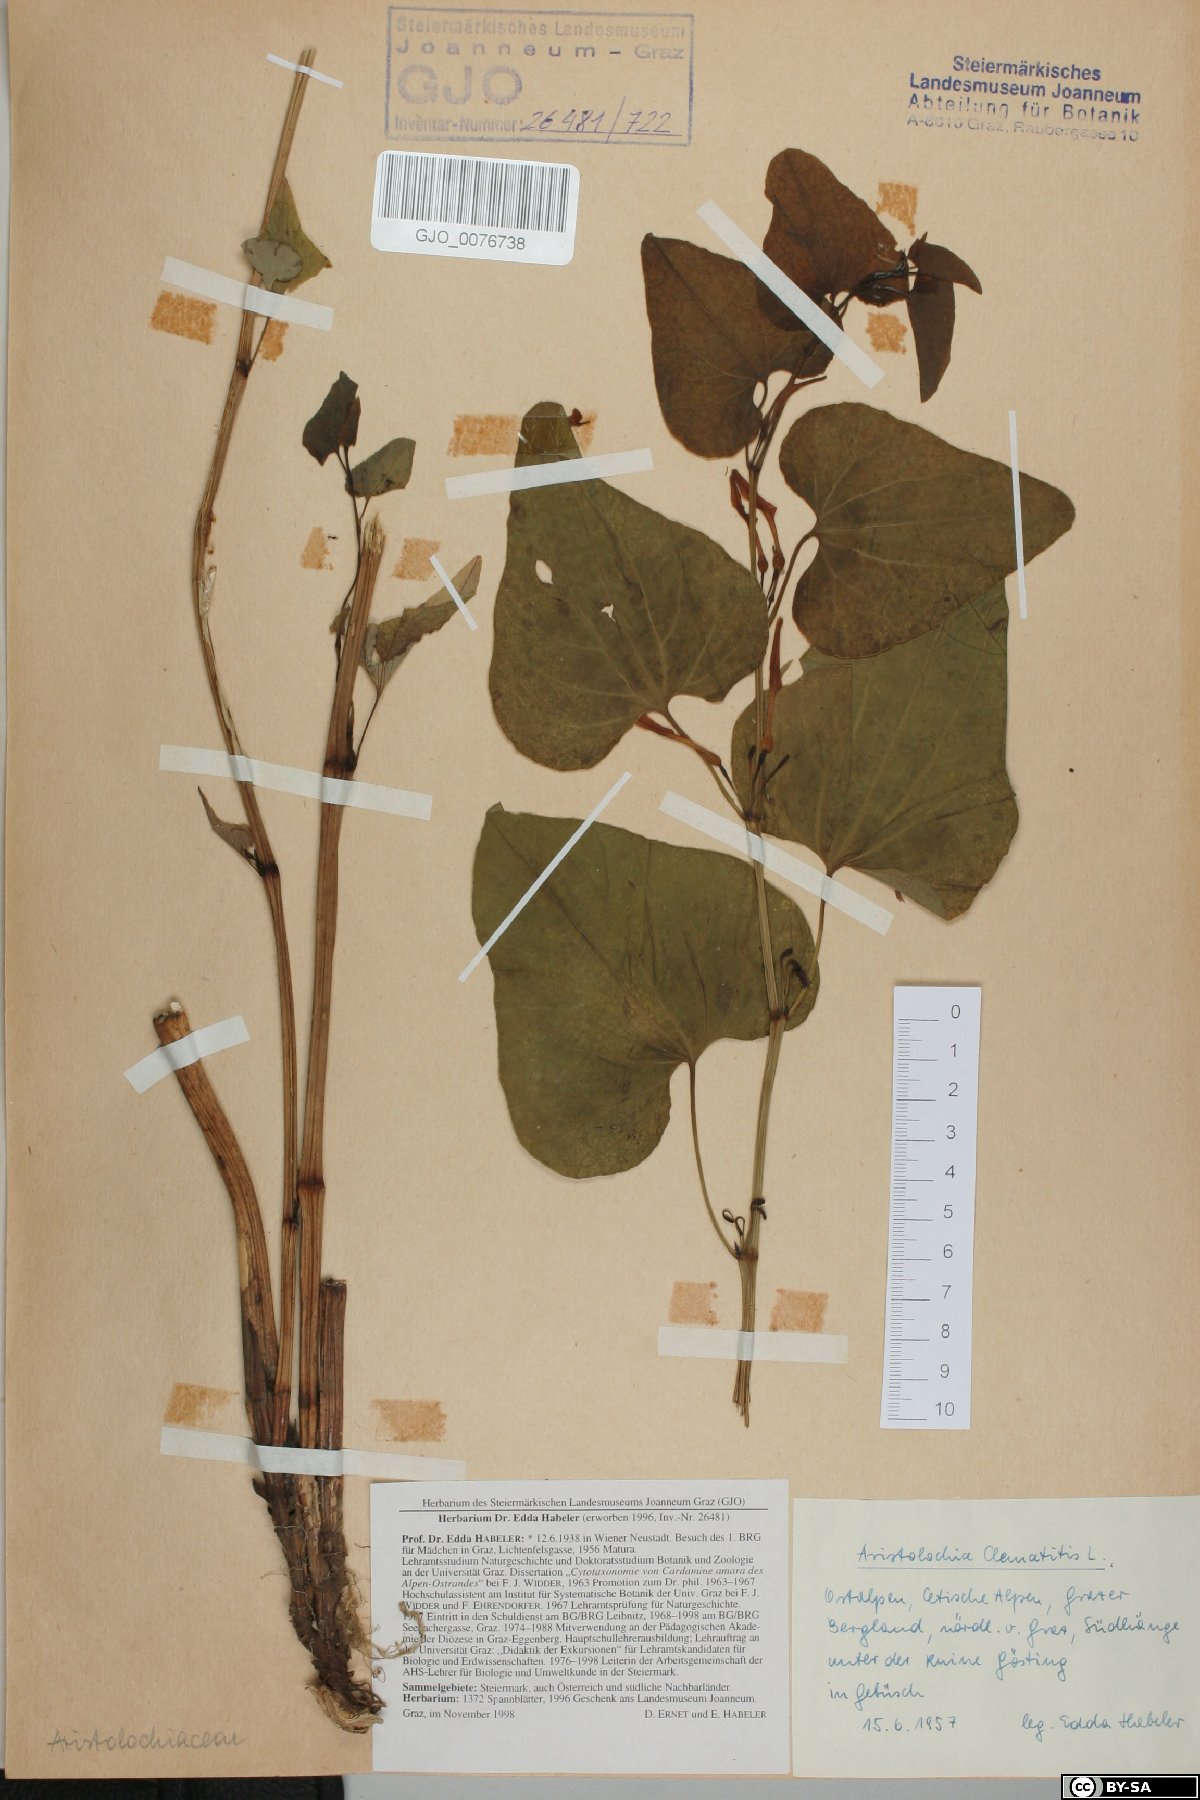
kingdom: Plantae
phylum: Tracheophyta
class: Magnoliopsida
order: Piperales
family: Aristolochiaceae
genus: Aristolochia
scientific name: Aristolochia clematitis
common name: Birthwort
